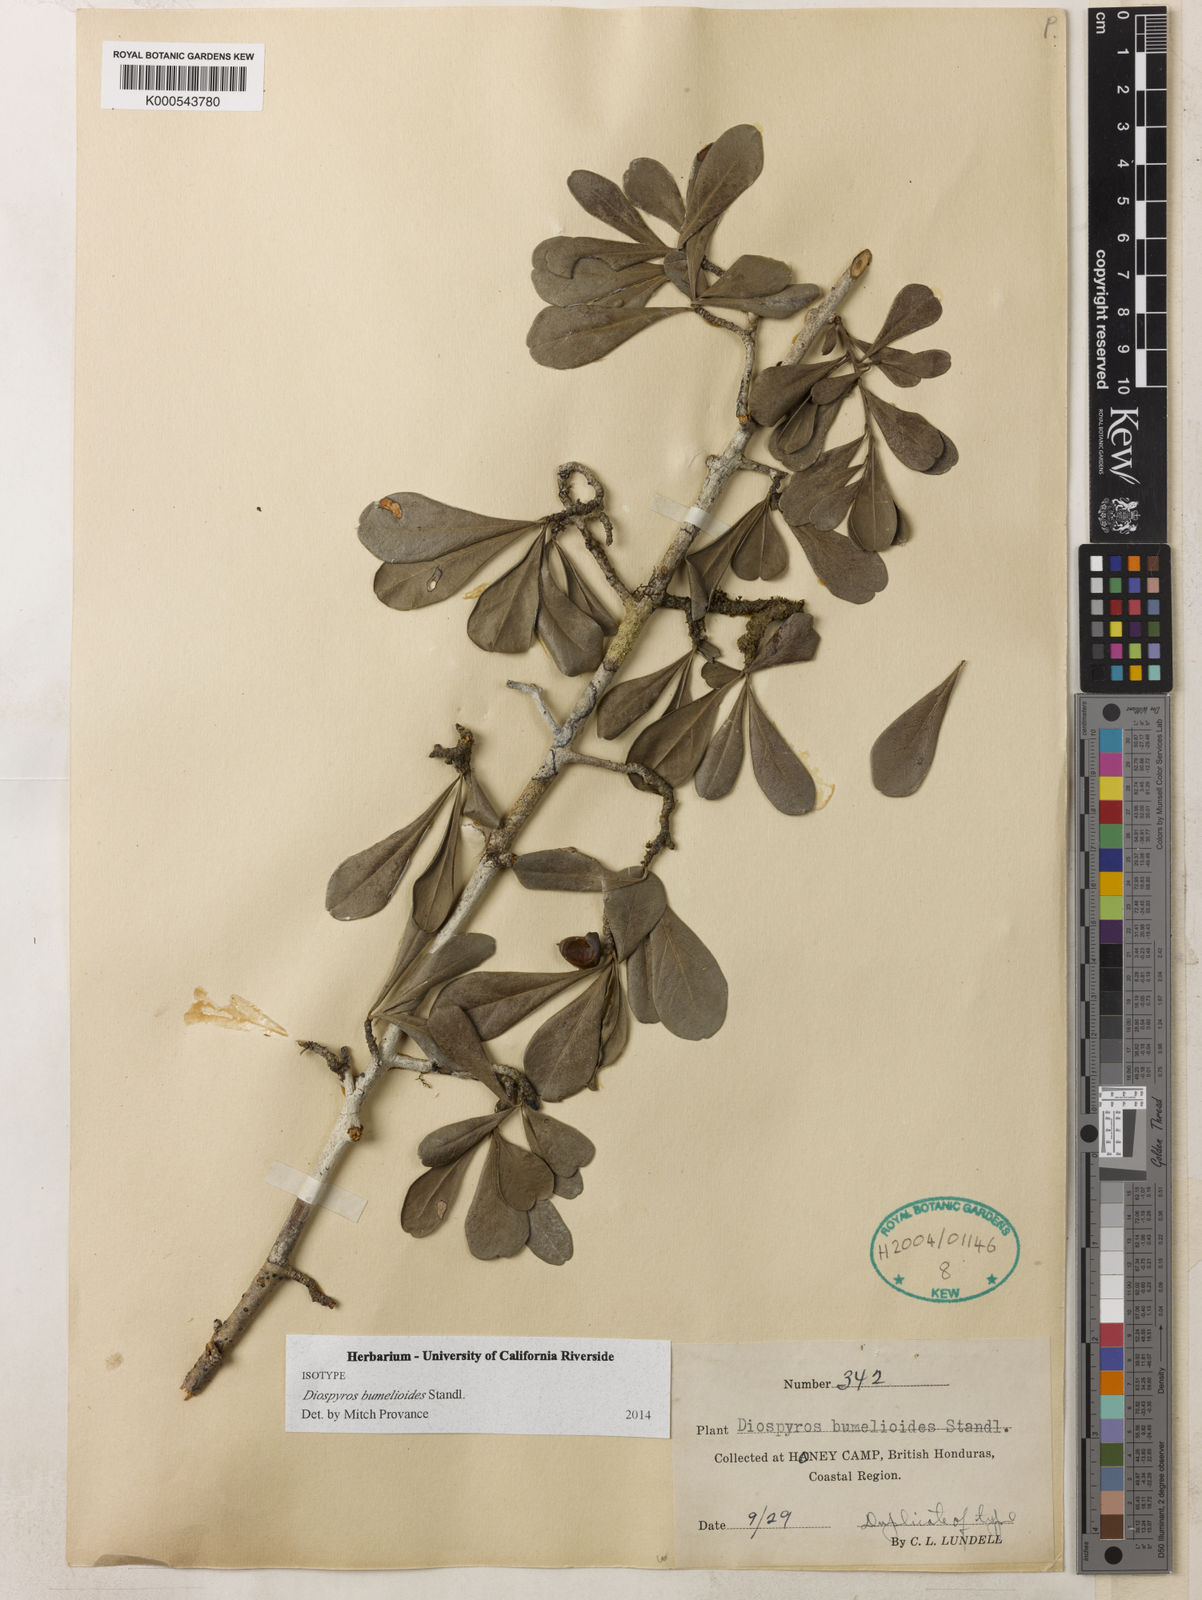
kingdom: Plantae
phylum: Tracheophyta
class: Magnoliopsida
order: Ericales
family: Ebenaceae
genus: Diospyros
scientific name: Diospyros bumelioides
